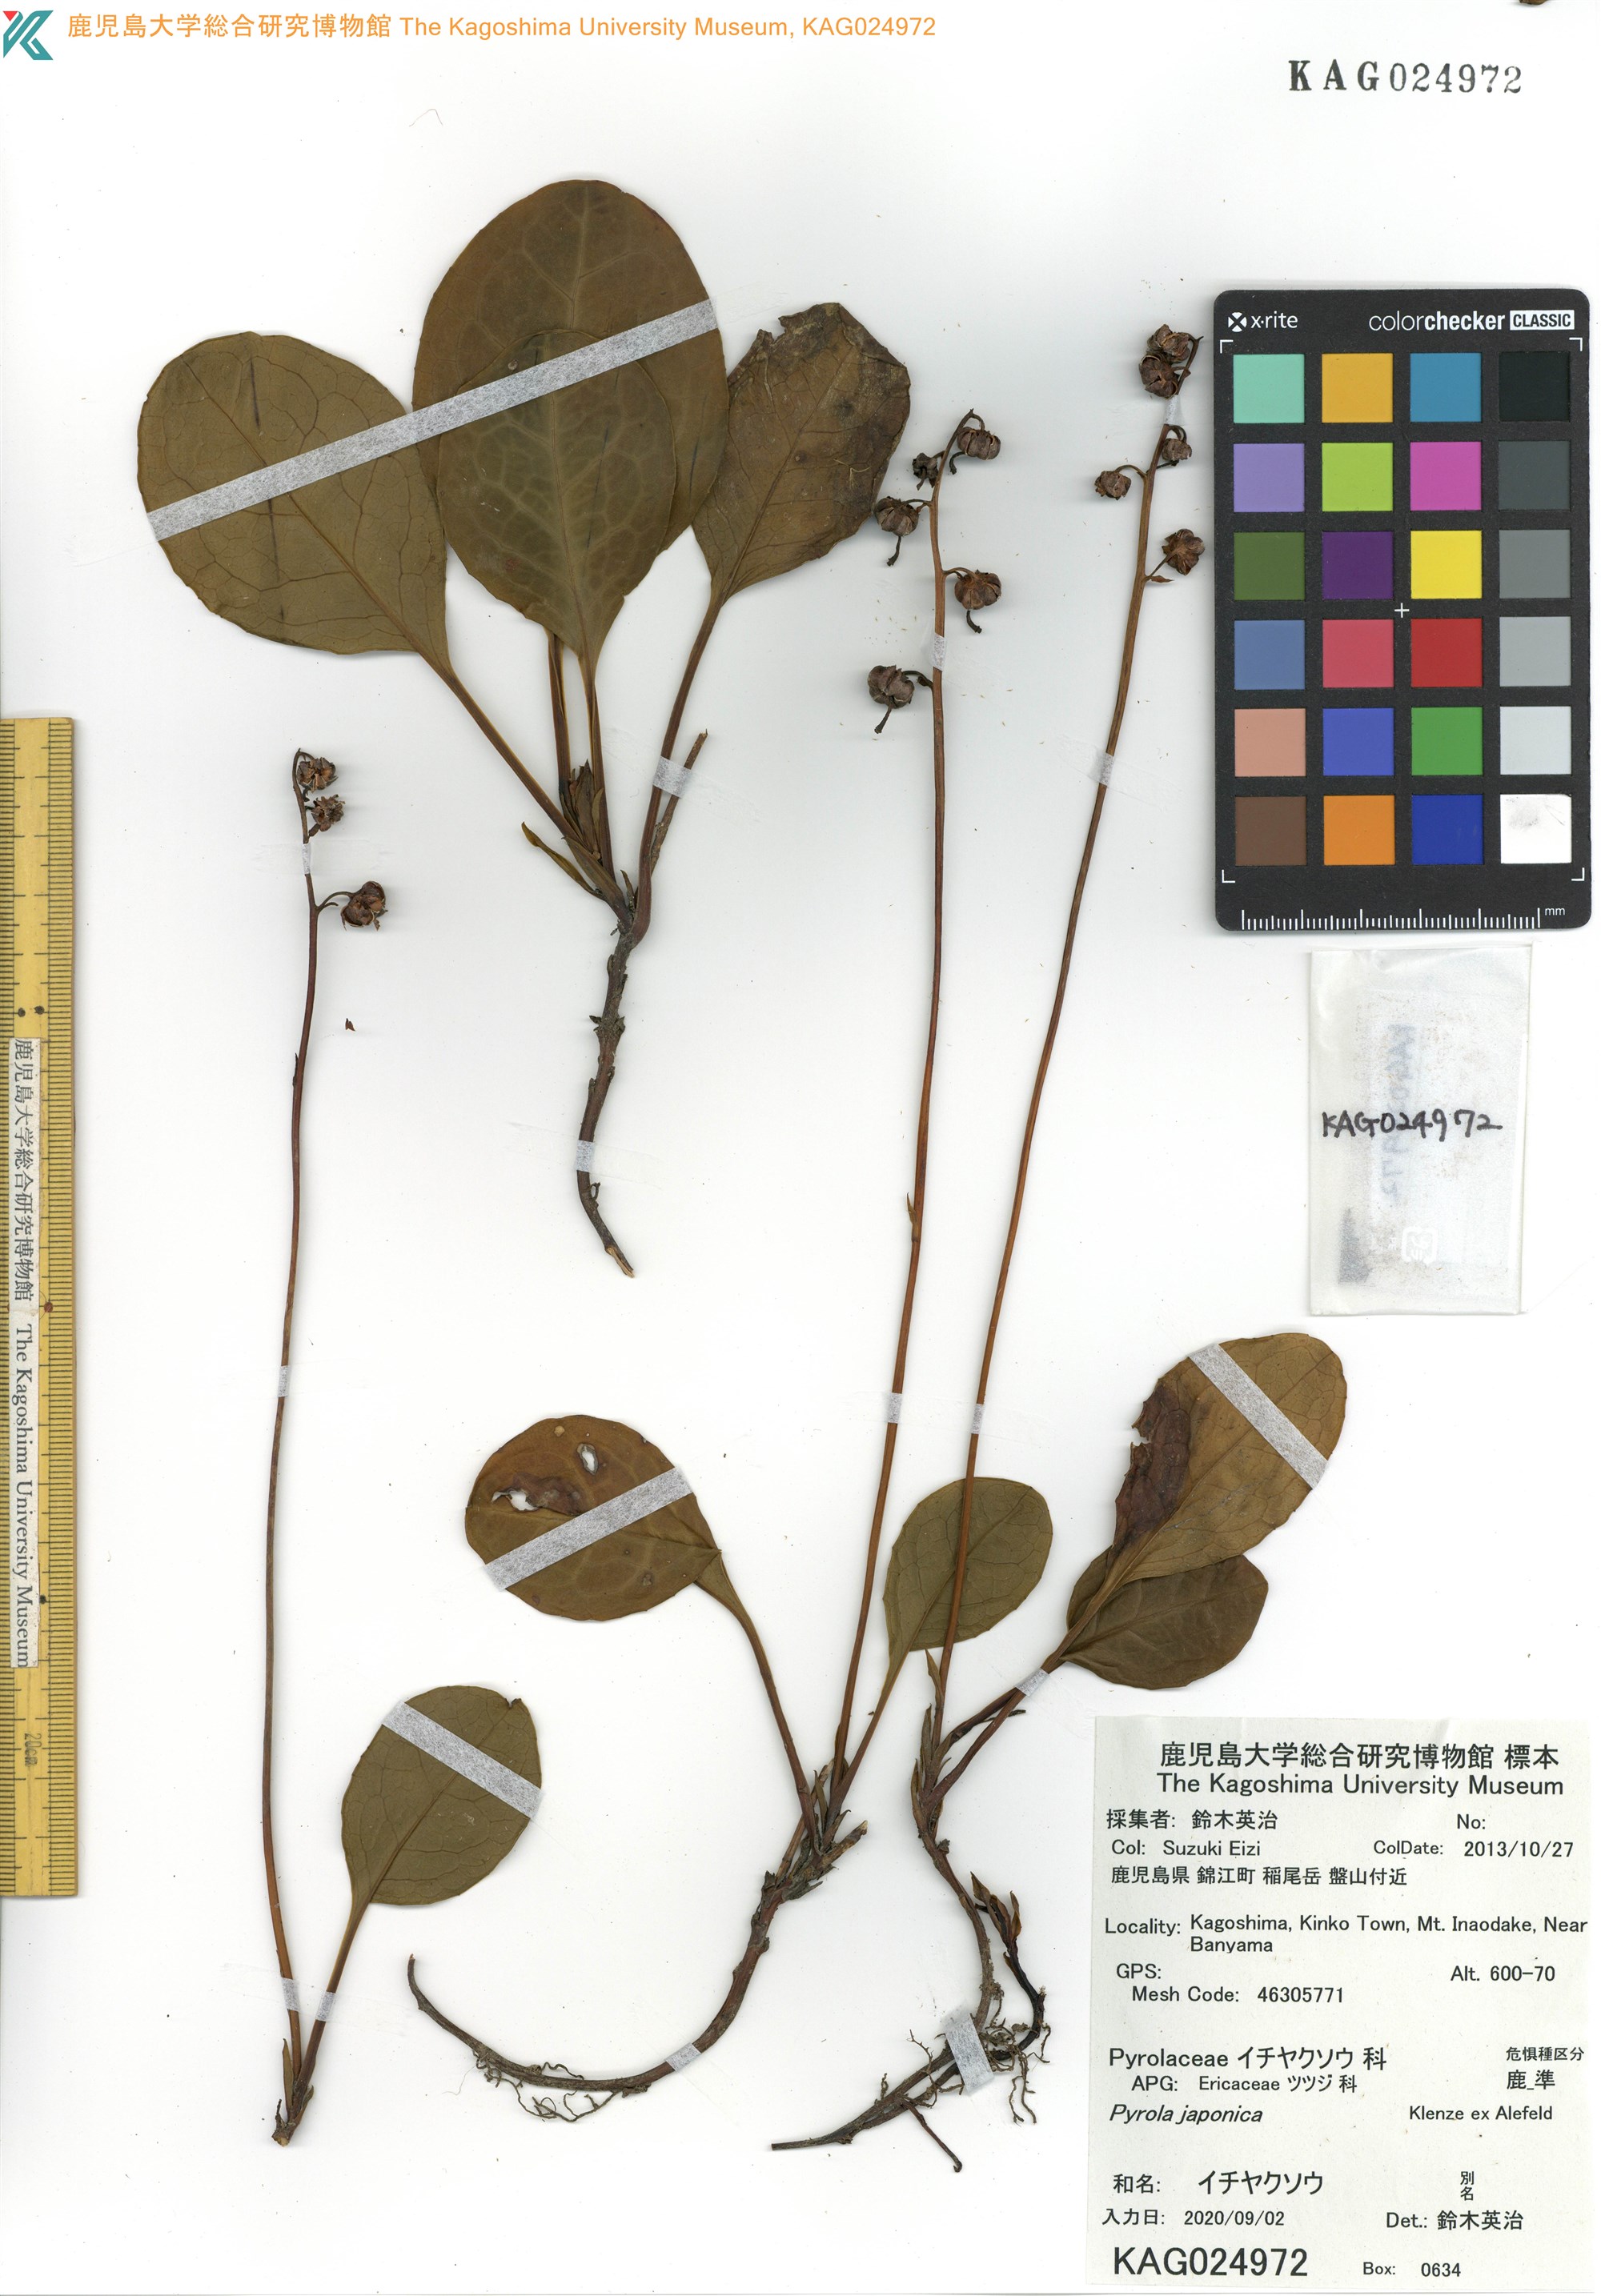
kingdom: Plantae
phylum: Tracheophyta
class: Magnoliopsida
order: Ericales
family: Ericaceae
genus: Pyrola
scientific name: Pyrola japonica
